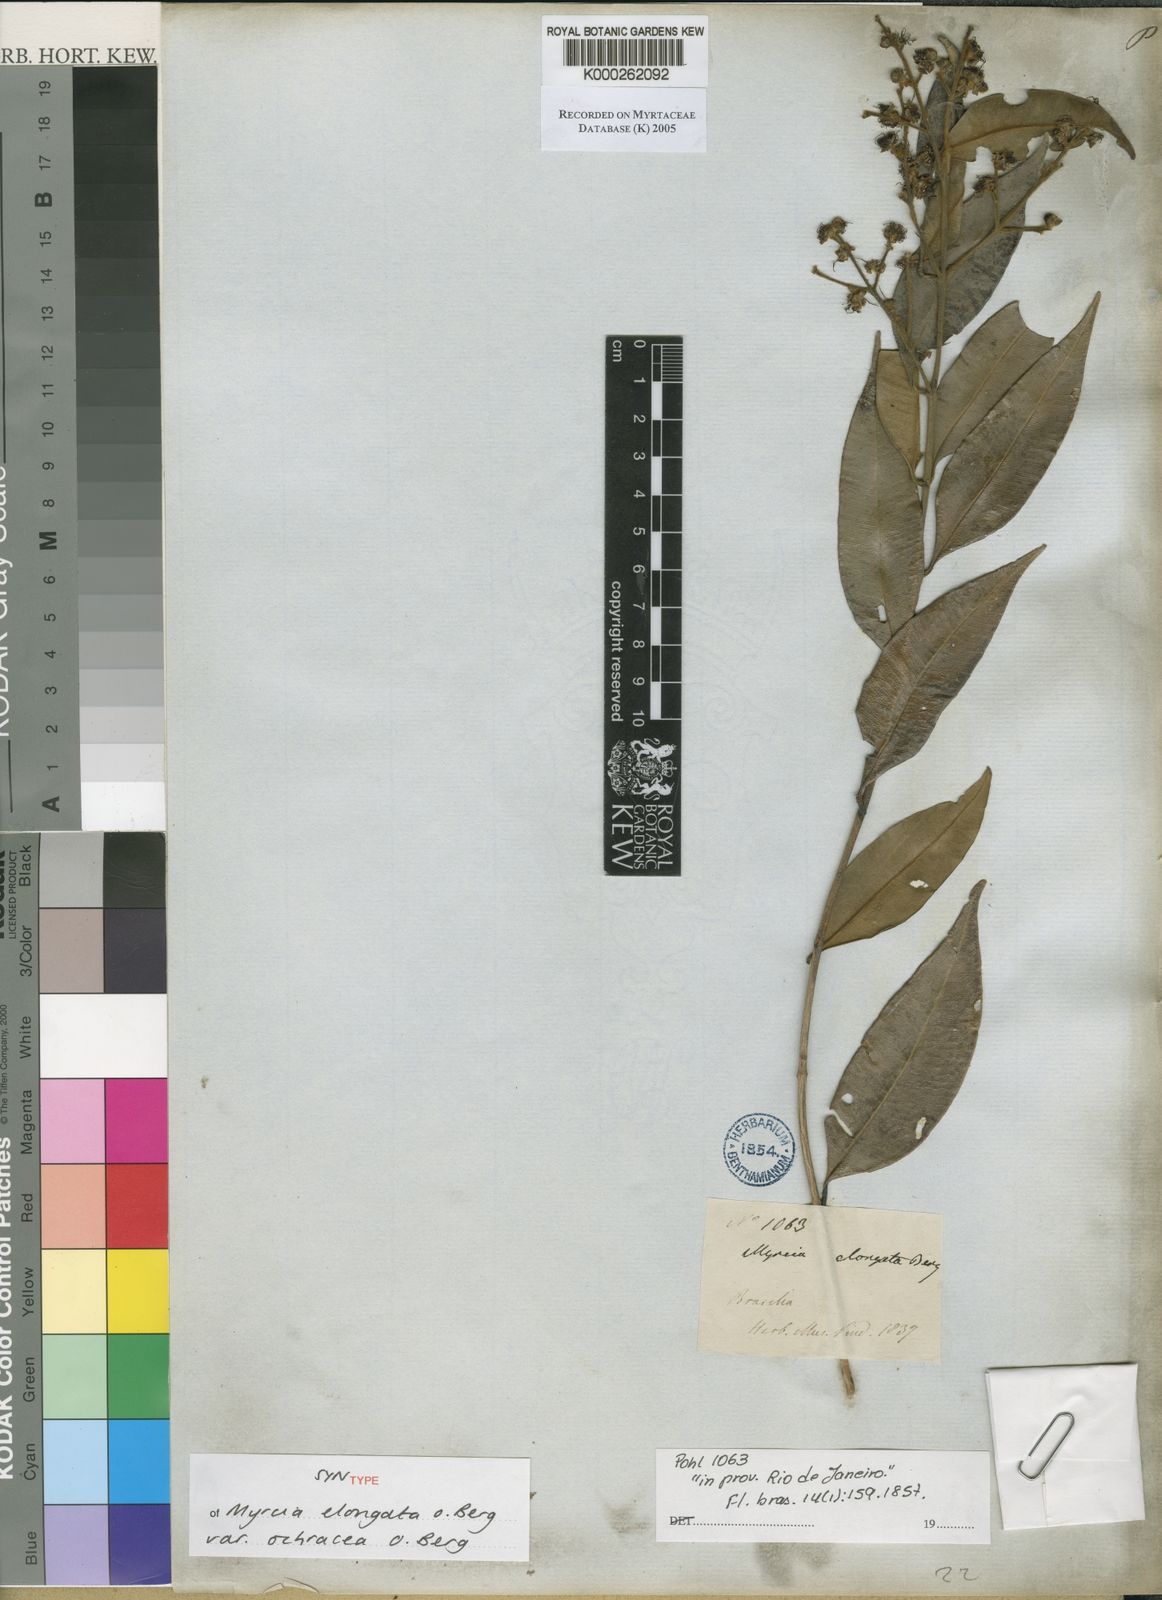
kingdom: Plantae
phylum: Tracheophyta
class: Magnoliopsida
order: Myrtales
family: Myrtaceae
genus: Myrcia
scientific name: Myrcia splendens
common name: Surinam cherry
